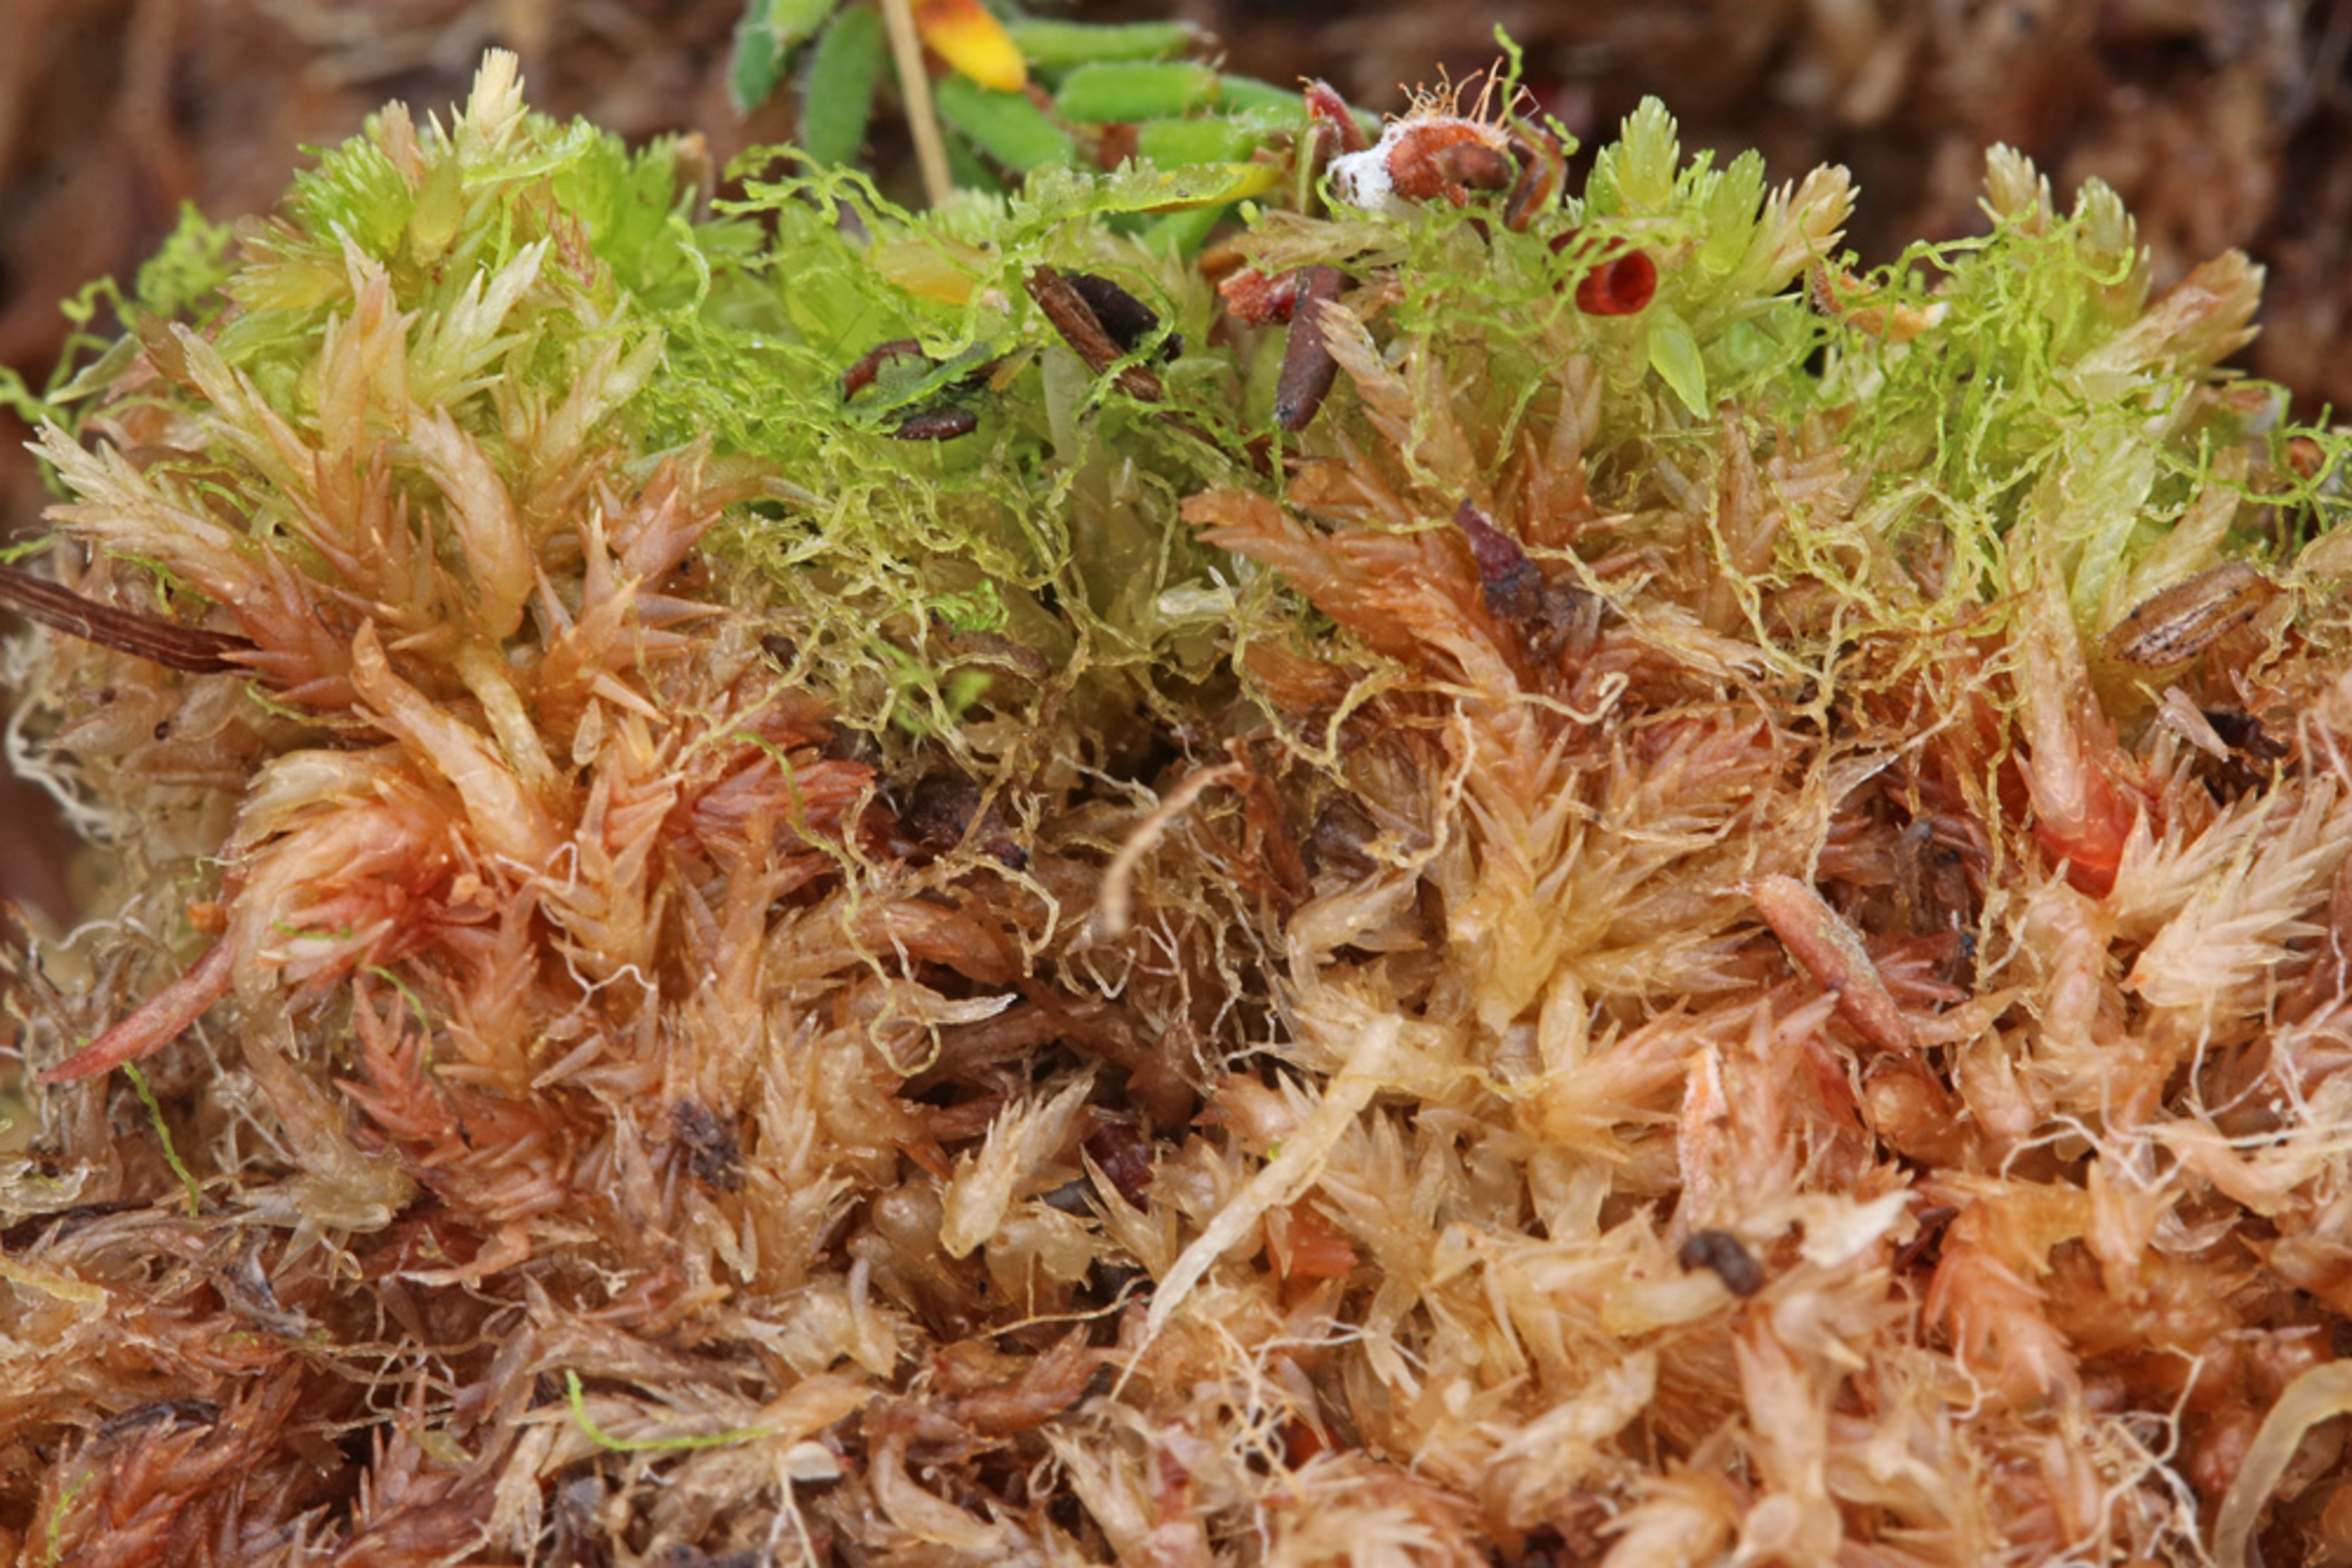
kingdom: Plantae
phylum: Marchantiophyta
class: Jungermanniopsida
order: Jungermanniales
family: Cephaloziellaceae
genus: Cephaloziella
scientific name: Cephaloziella elachista
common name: Liden dværgtråd
